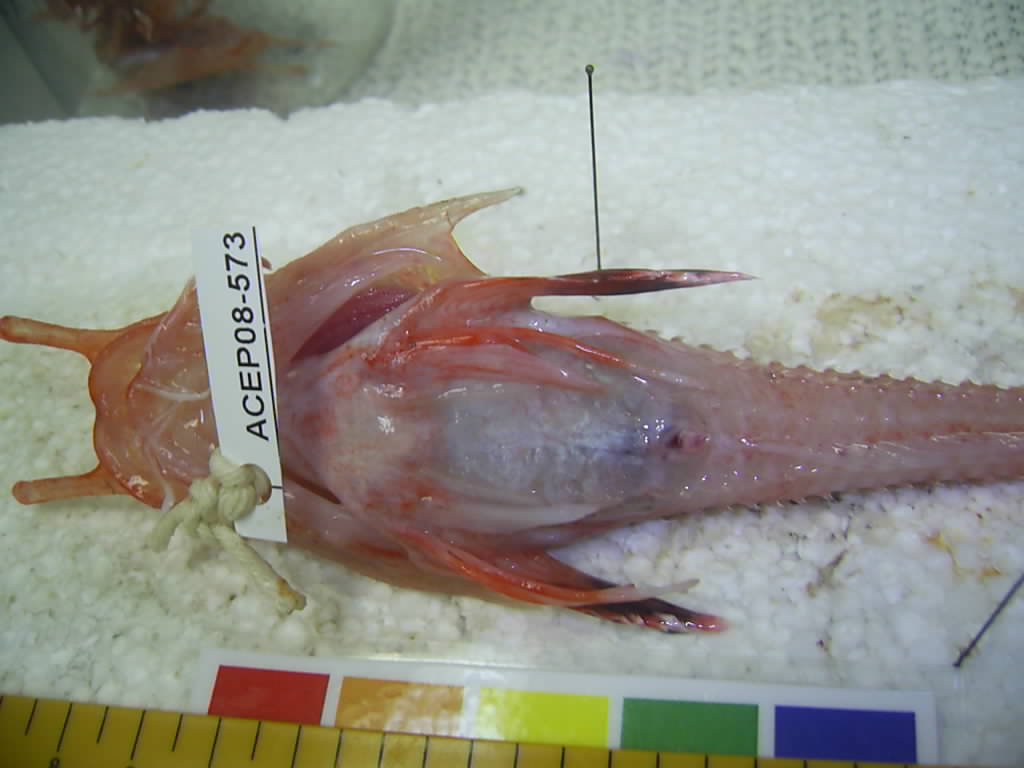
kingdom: Animalia
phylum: Chordata
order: Scorpaeniformes
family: Peristediidae
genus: Scalicus
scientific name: Scalicus engyceros
